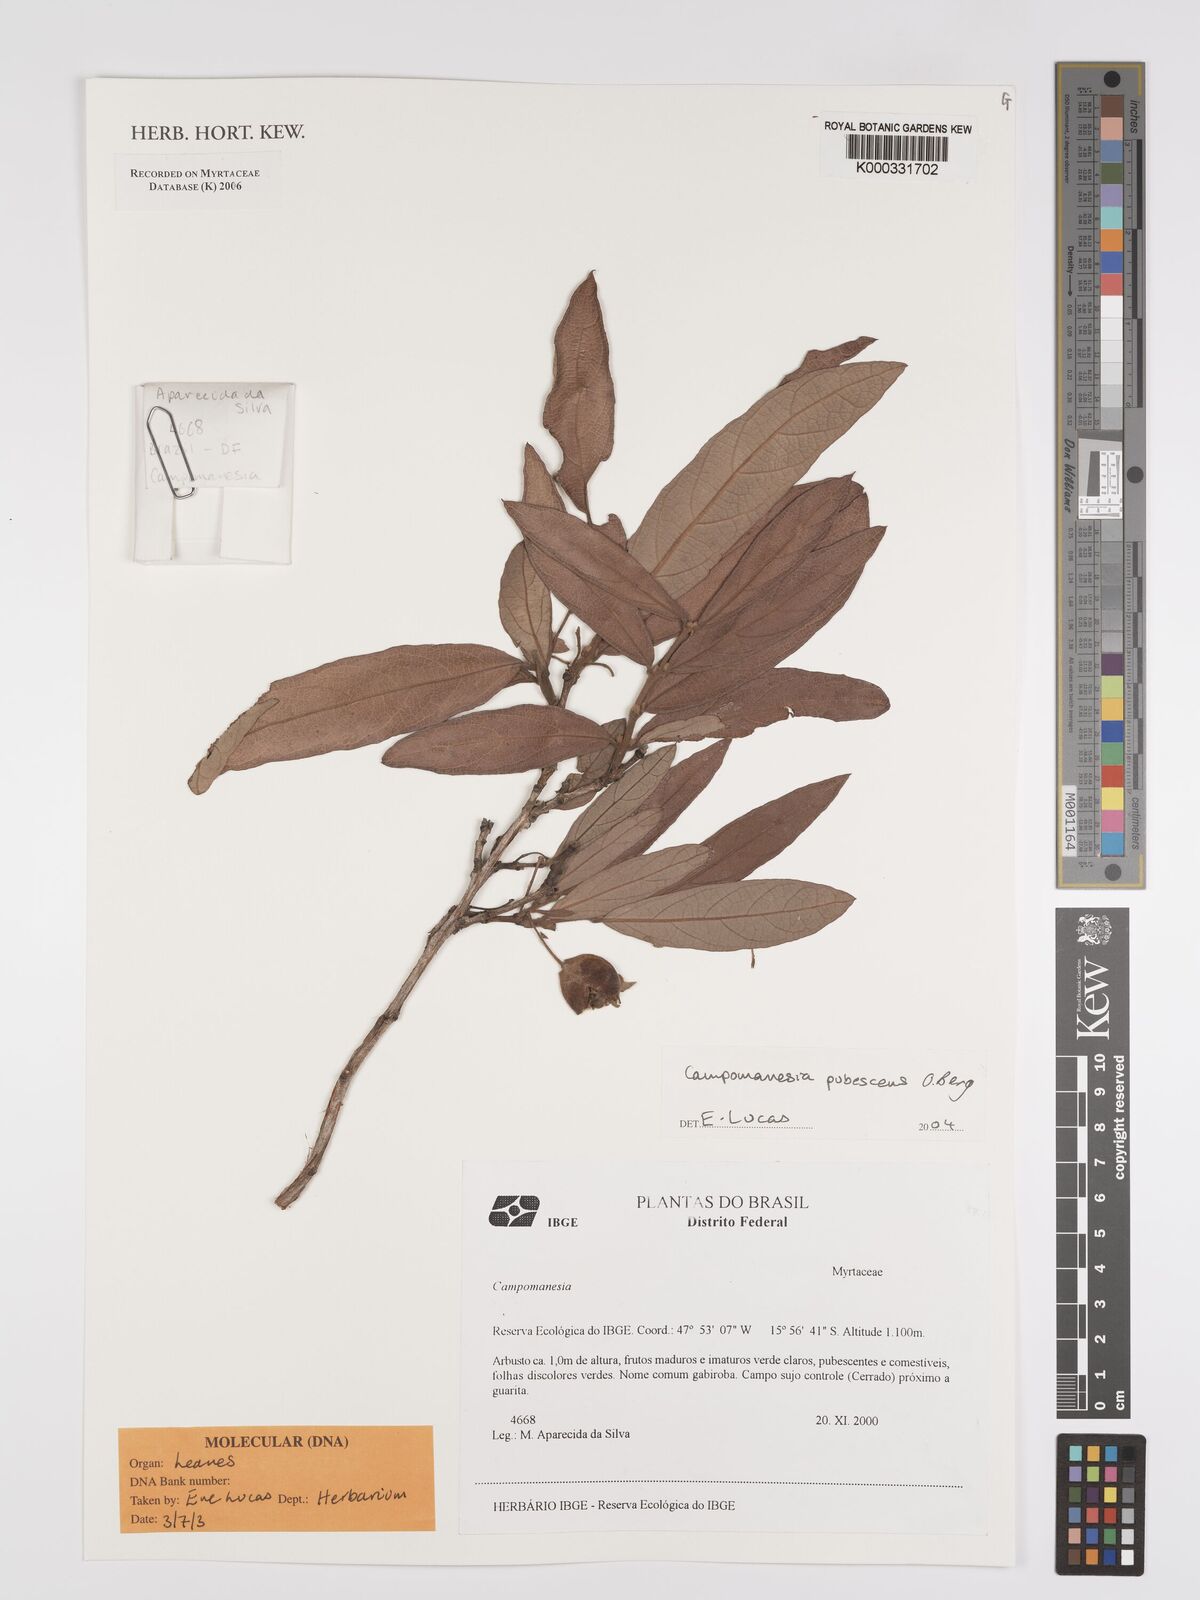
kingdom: Plantae
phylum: Tracheophyta
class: Magnoliopsida
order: Myrtales
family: Myrtaceae
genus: Campomanesia
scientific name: Campomanesia pubescens
